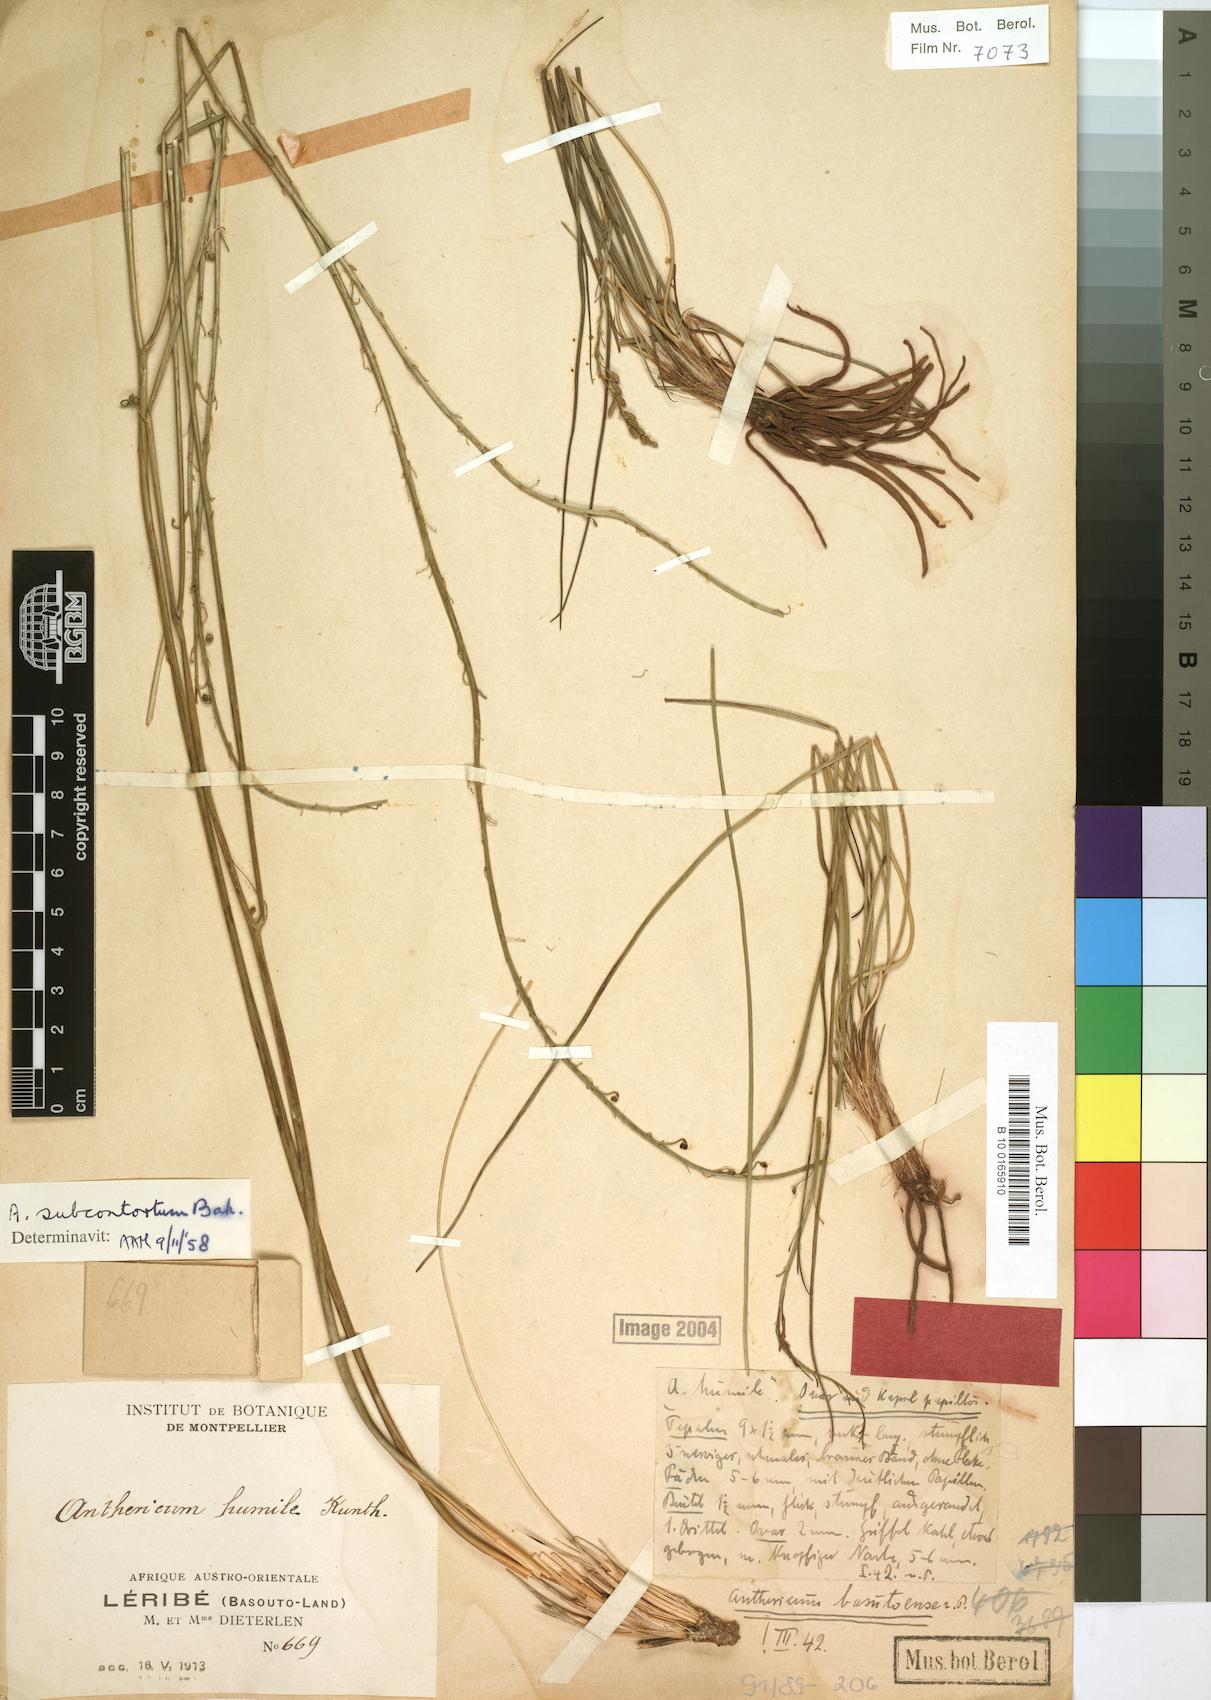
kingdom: Plantae
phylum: Tracheophyta
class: Liliopsida
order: Asparagales
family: Asphodelaceae
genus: Trachyandra
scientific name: Trachyandra asperata
